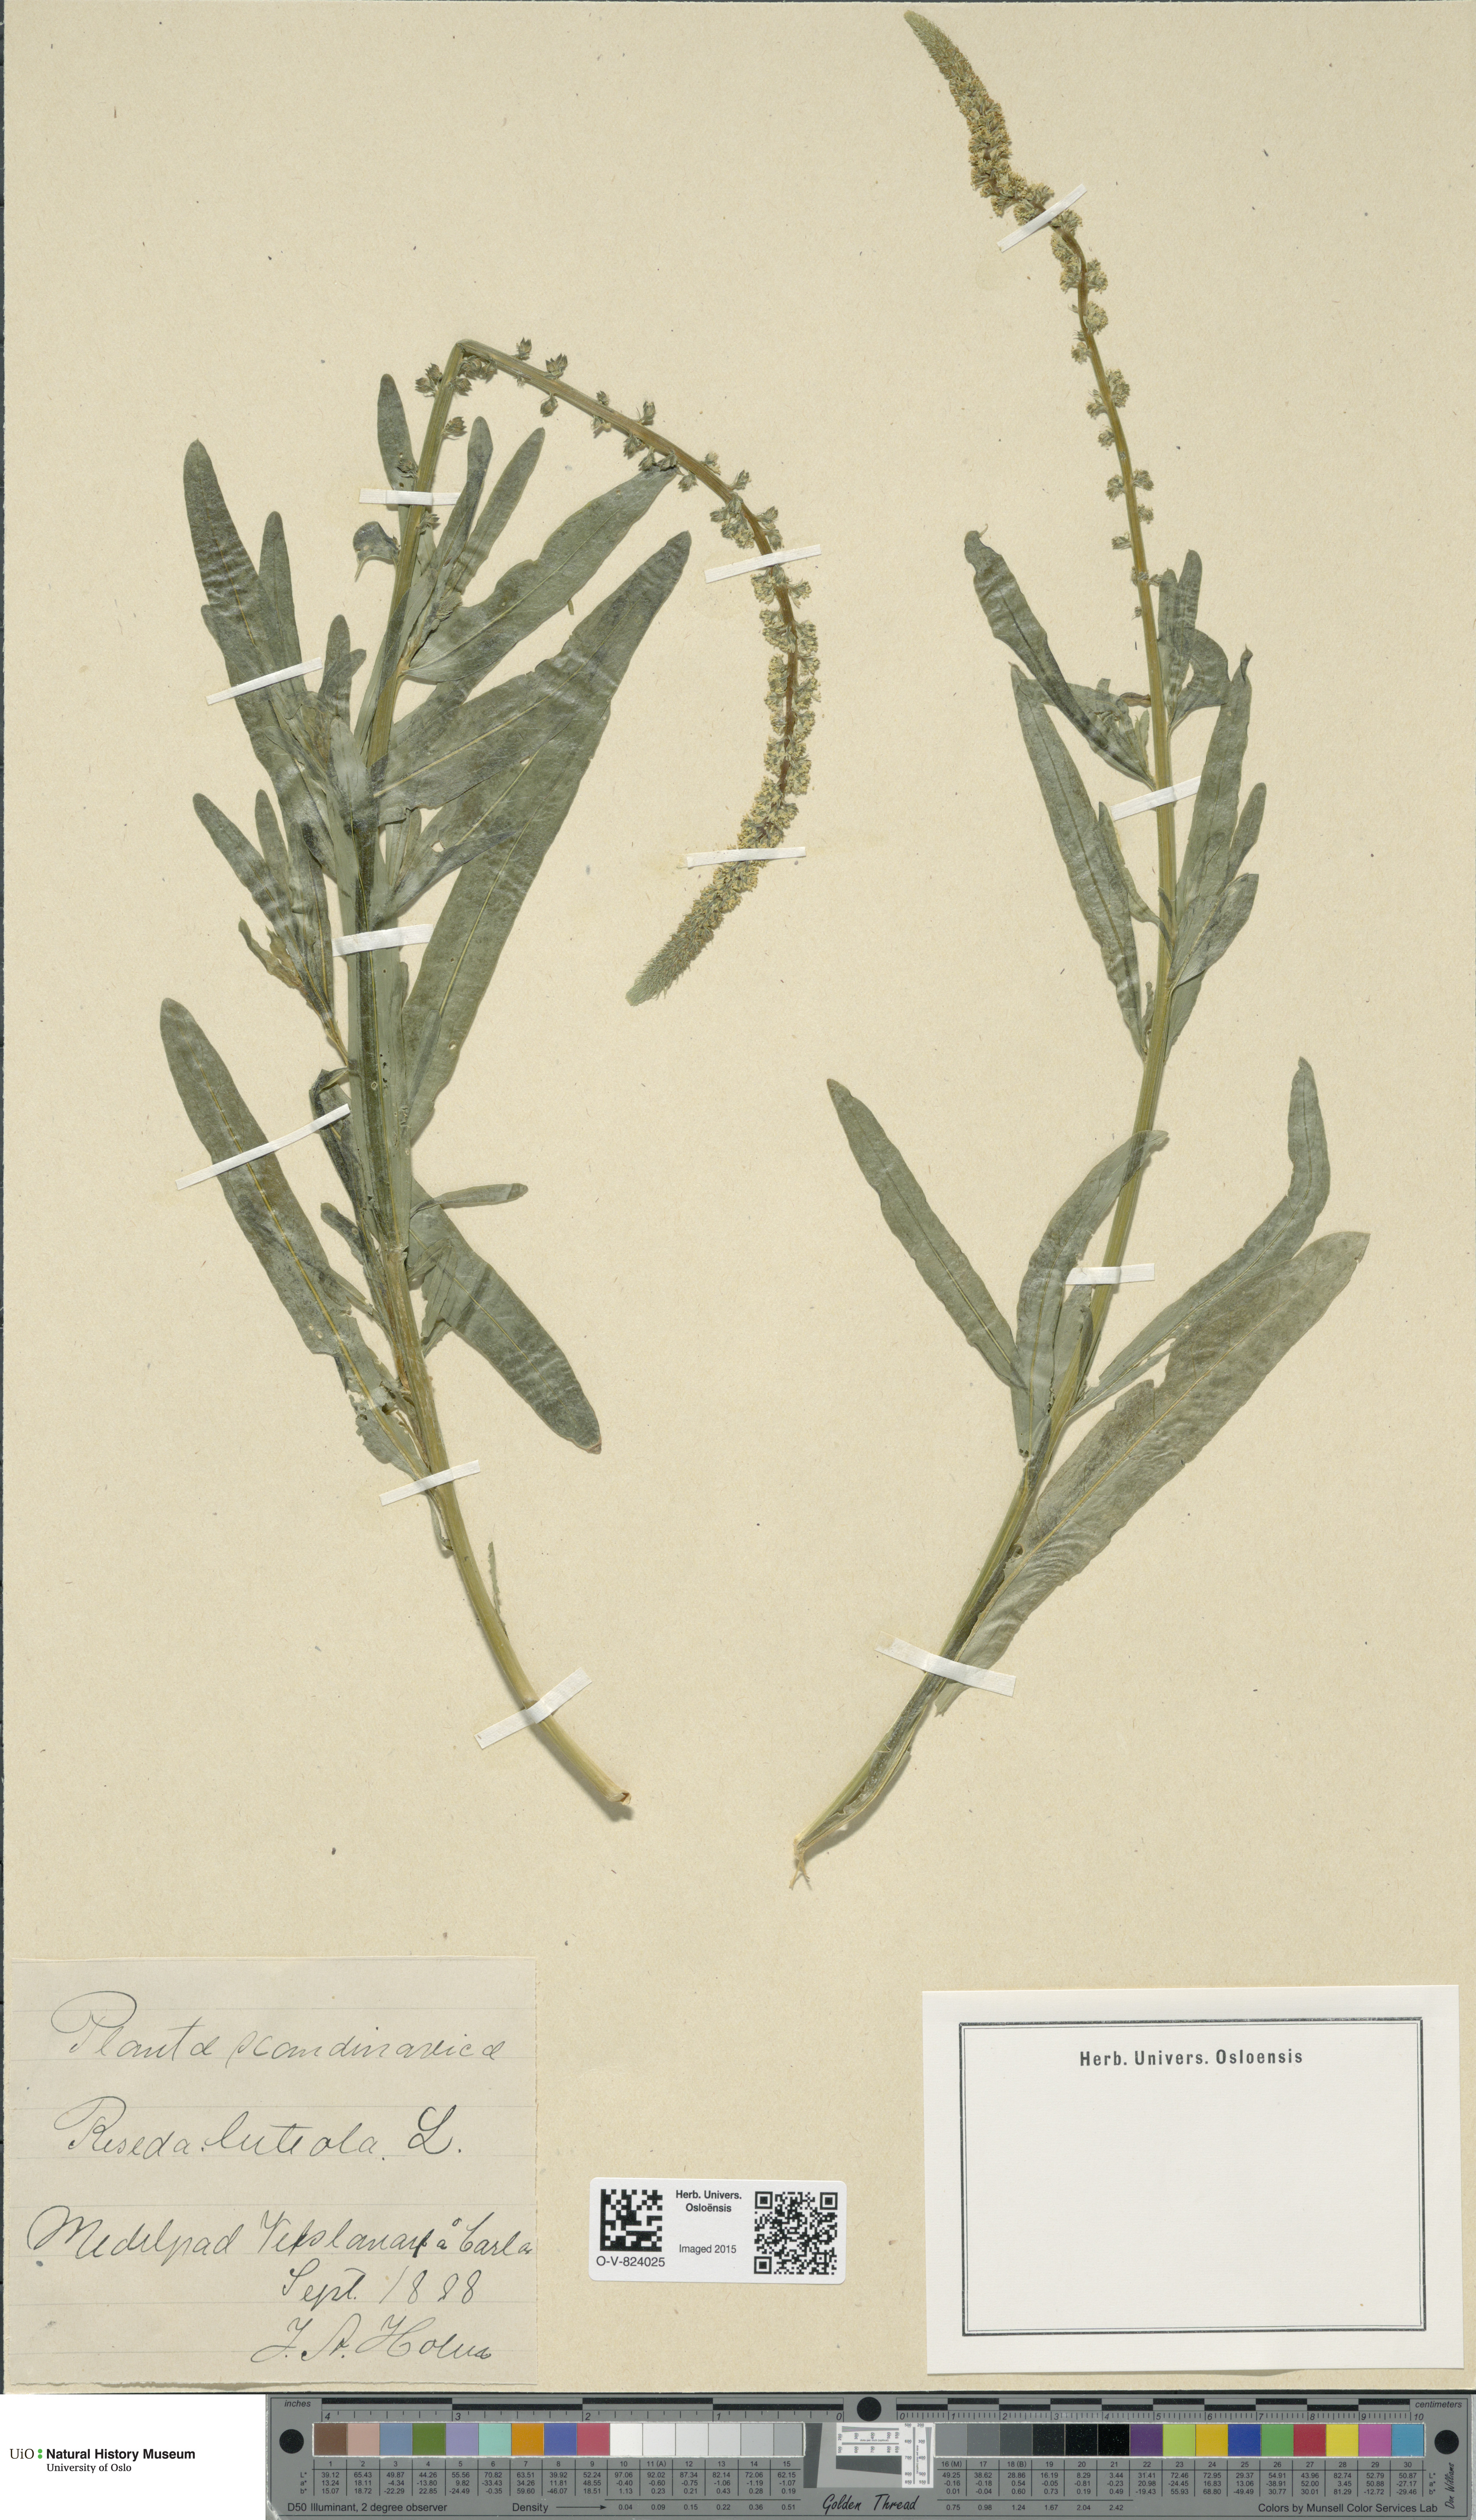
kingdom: Plantae
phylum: Tracheophyta
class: Magnoliopsida
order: Brassicales
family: Resedaceae
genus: Reseda
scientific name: Reseda luteola
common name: Weld
